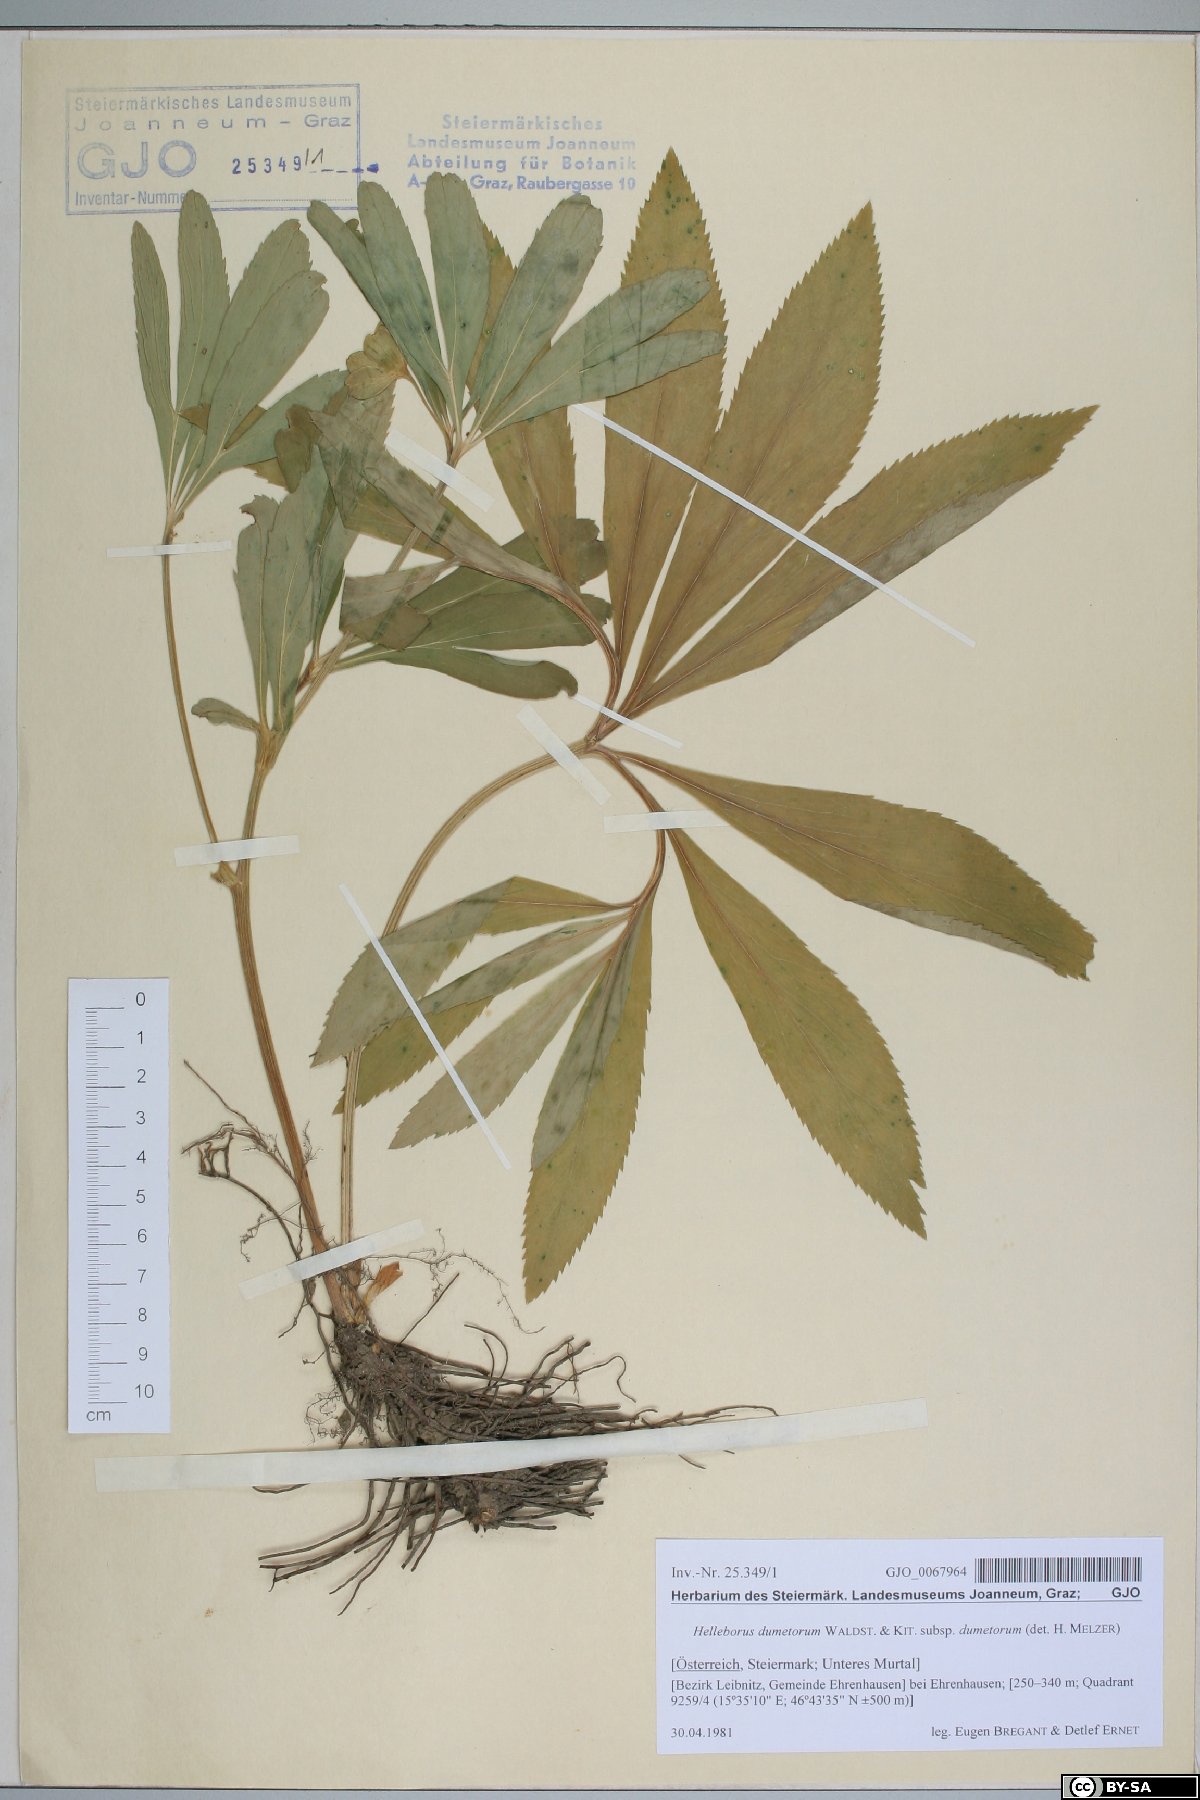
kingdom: Plantae
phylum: Tracheophyta
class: Magnoliopsida
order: Ranunculales
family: Ranunculaceae
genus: Helleborus
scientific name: Helleborus dumetorum
